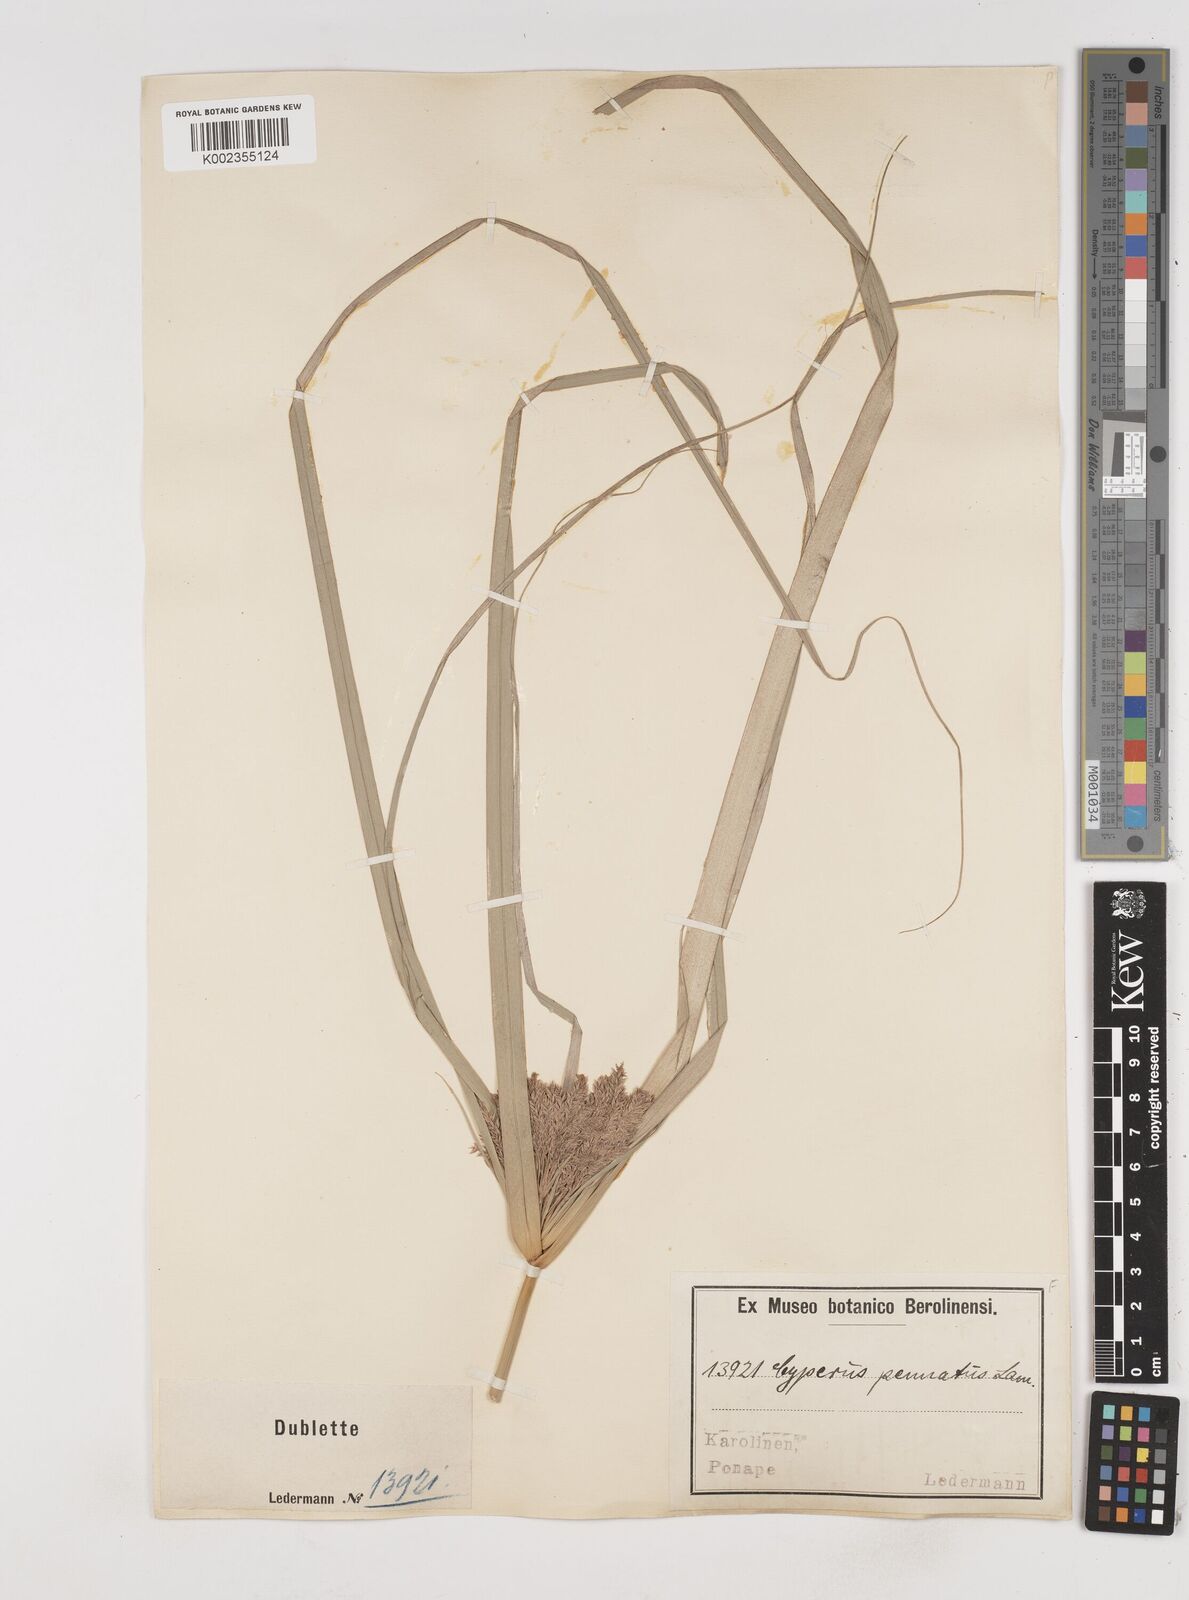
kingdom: Plantae
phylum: Tracheophyta
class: Liliopsida
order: Poales
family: Cyperaceae
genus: Cyperus
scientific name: Cyperus javanicus
